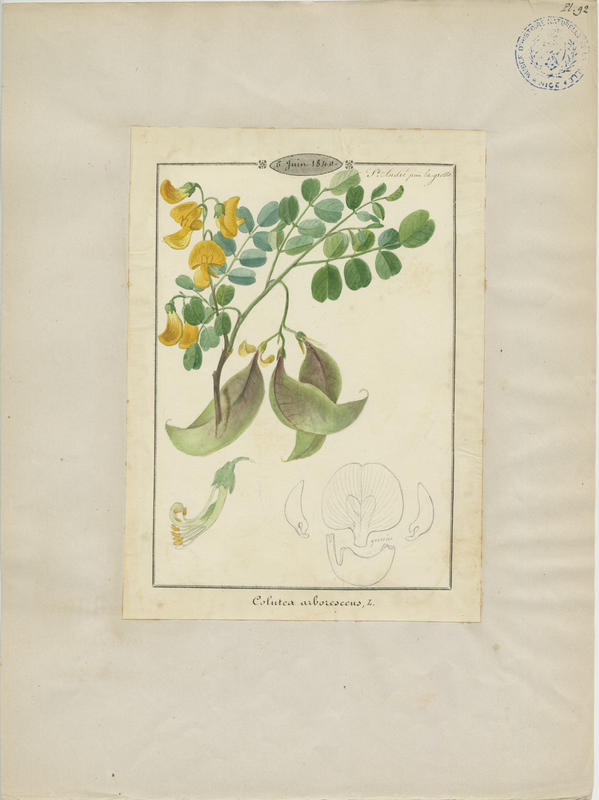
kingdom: Plantae
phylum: Tracheophyta
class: Magnoliopsida
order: Fabales
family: Fabaceae
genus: Colutea
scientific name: Colutea arborescens
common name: Bladder-senna
